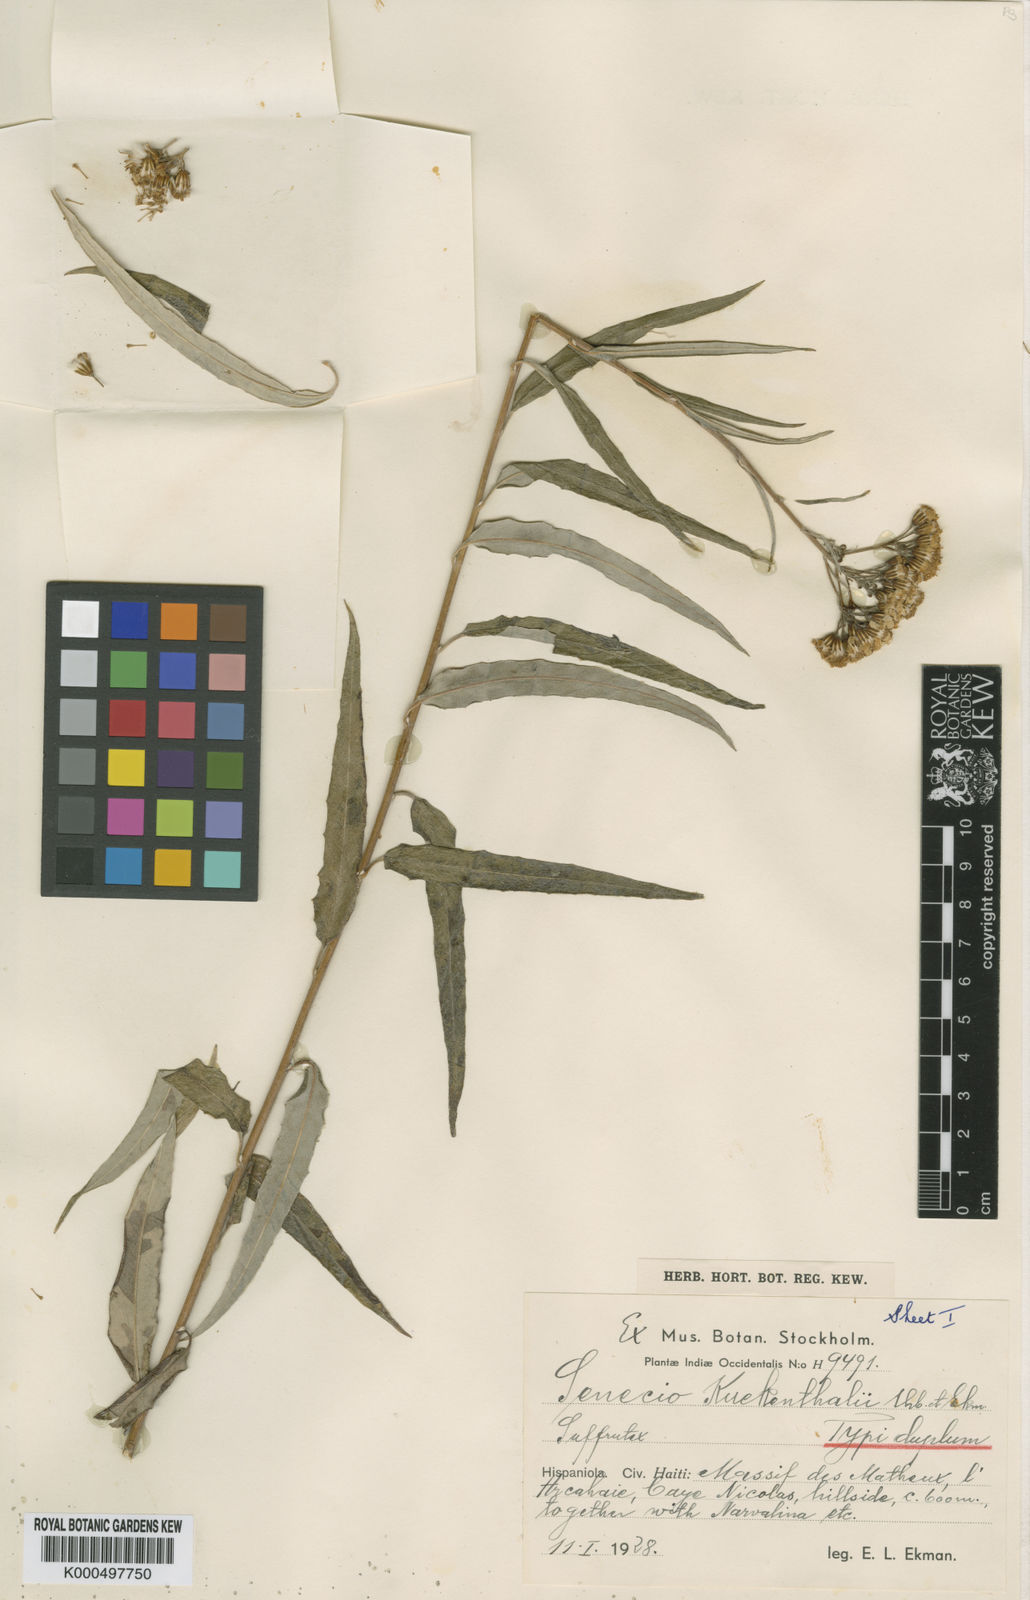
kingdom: Plantae
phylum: Tracheophyta
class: Magnoliopsida
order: Asterales
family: Asteraceae
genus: Elekmania
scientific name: Elekmania kuekenthalii
